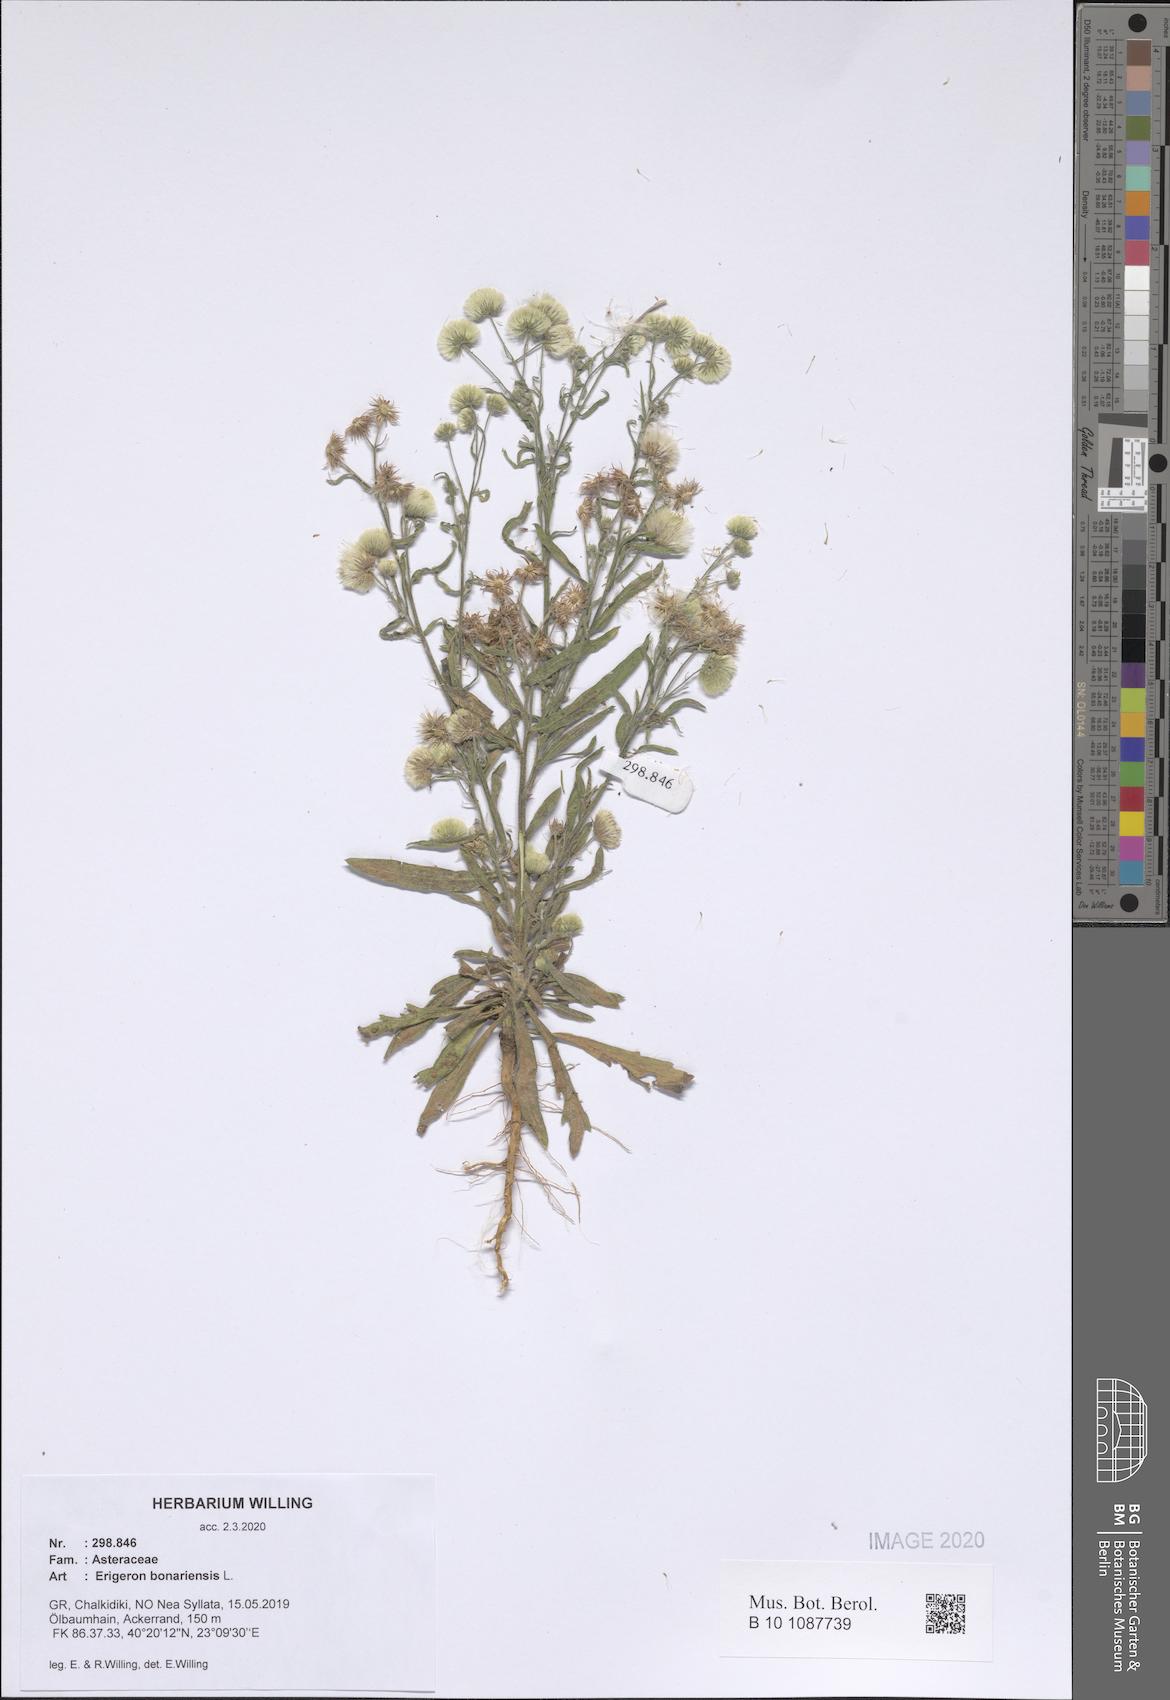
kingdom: Plantae
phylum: Tracheophyta
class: Magnoliopsida
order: Asterales
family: Asteraceae
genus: Erigeron
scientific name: Erigeron bonariensis
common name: Argentine fleabane
